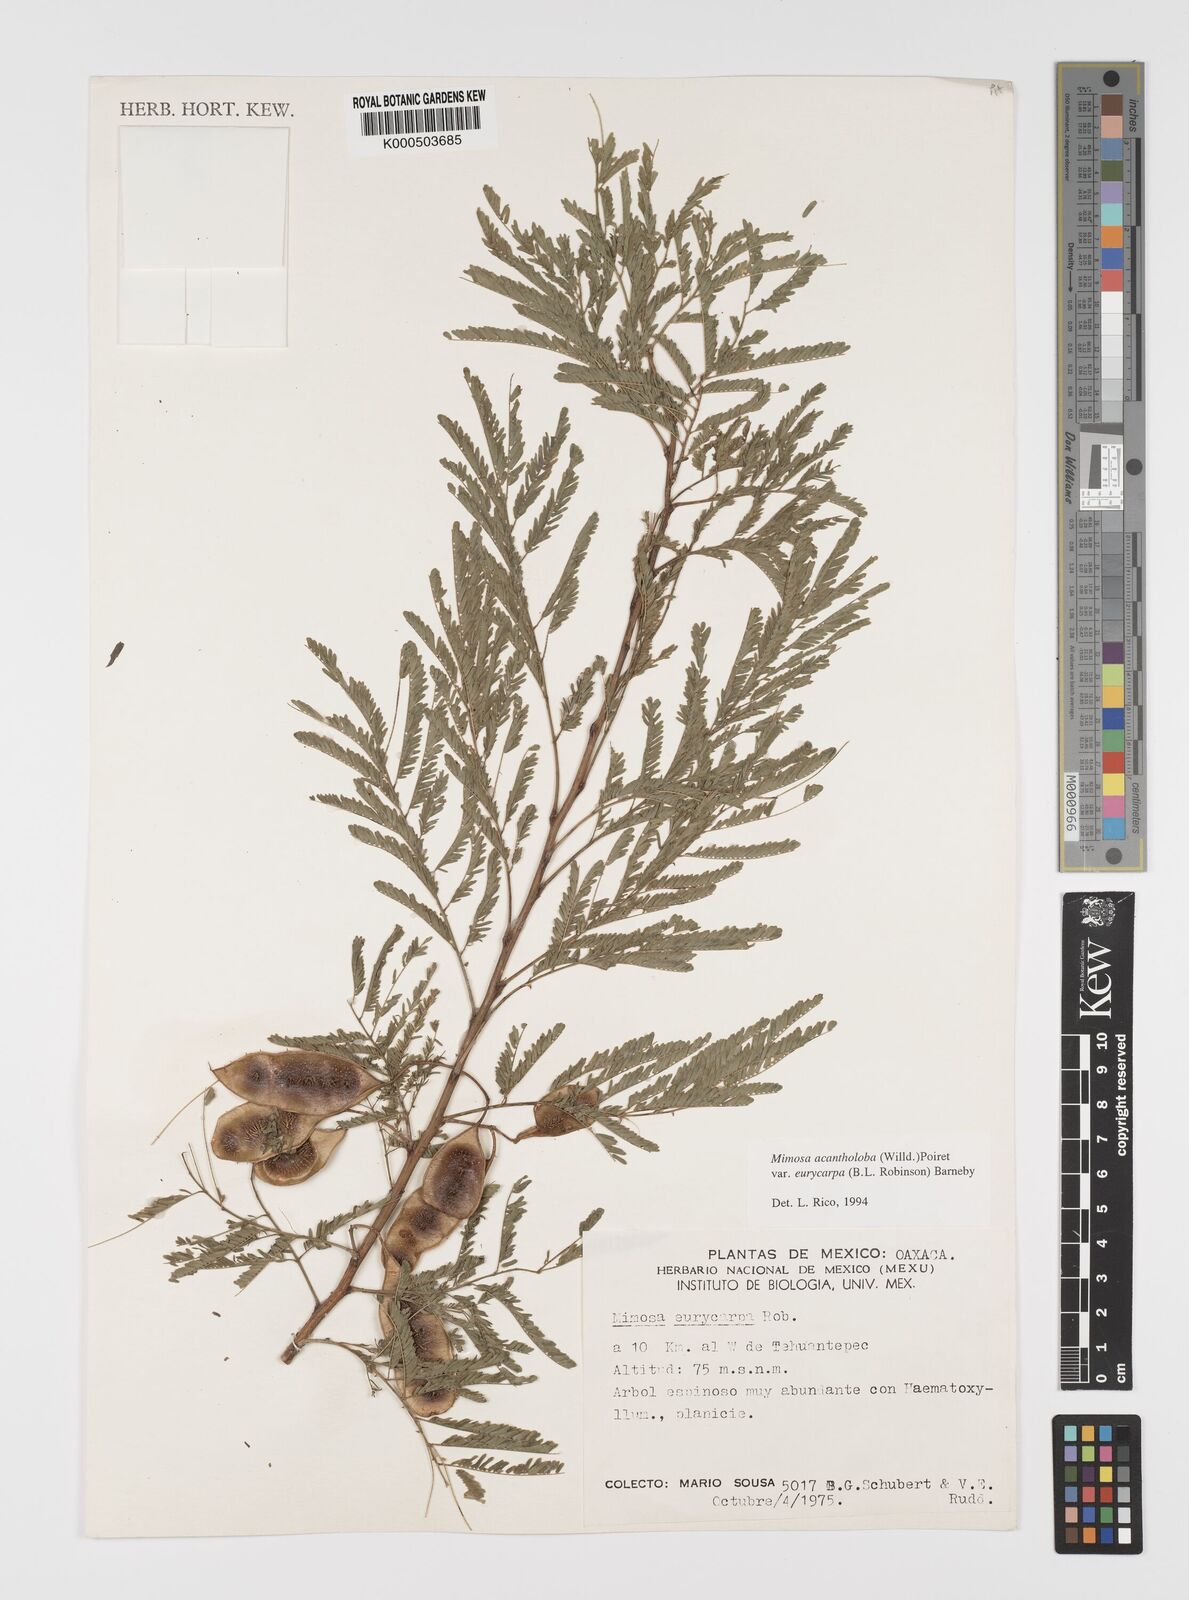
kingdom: Plantae
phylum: Tracheophyta
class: Magnoliopsida
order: Fabales
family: Fabaceae
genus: Mimosa
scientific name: Mimosa acantholoba
